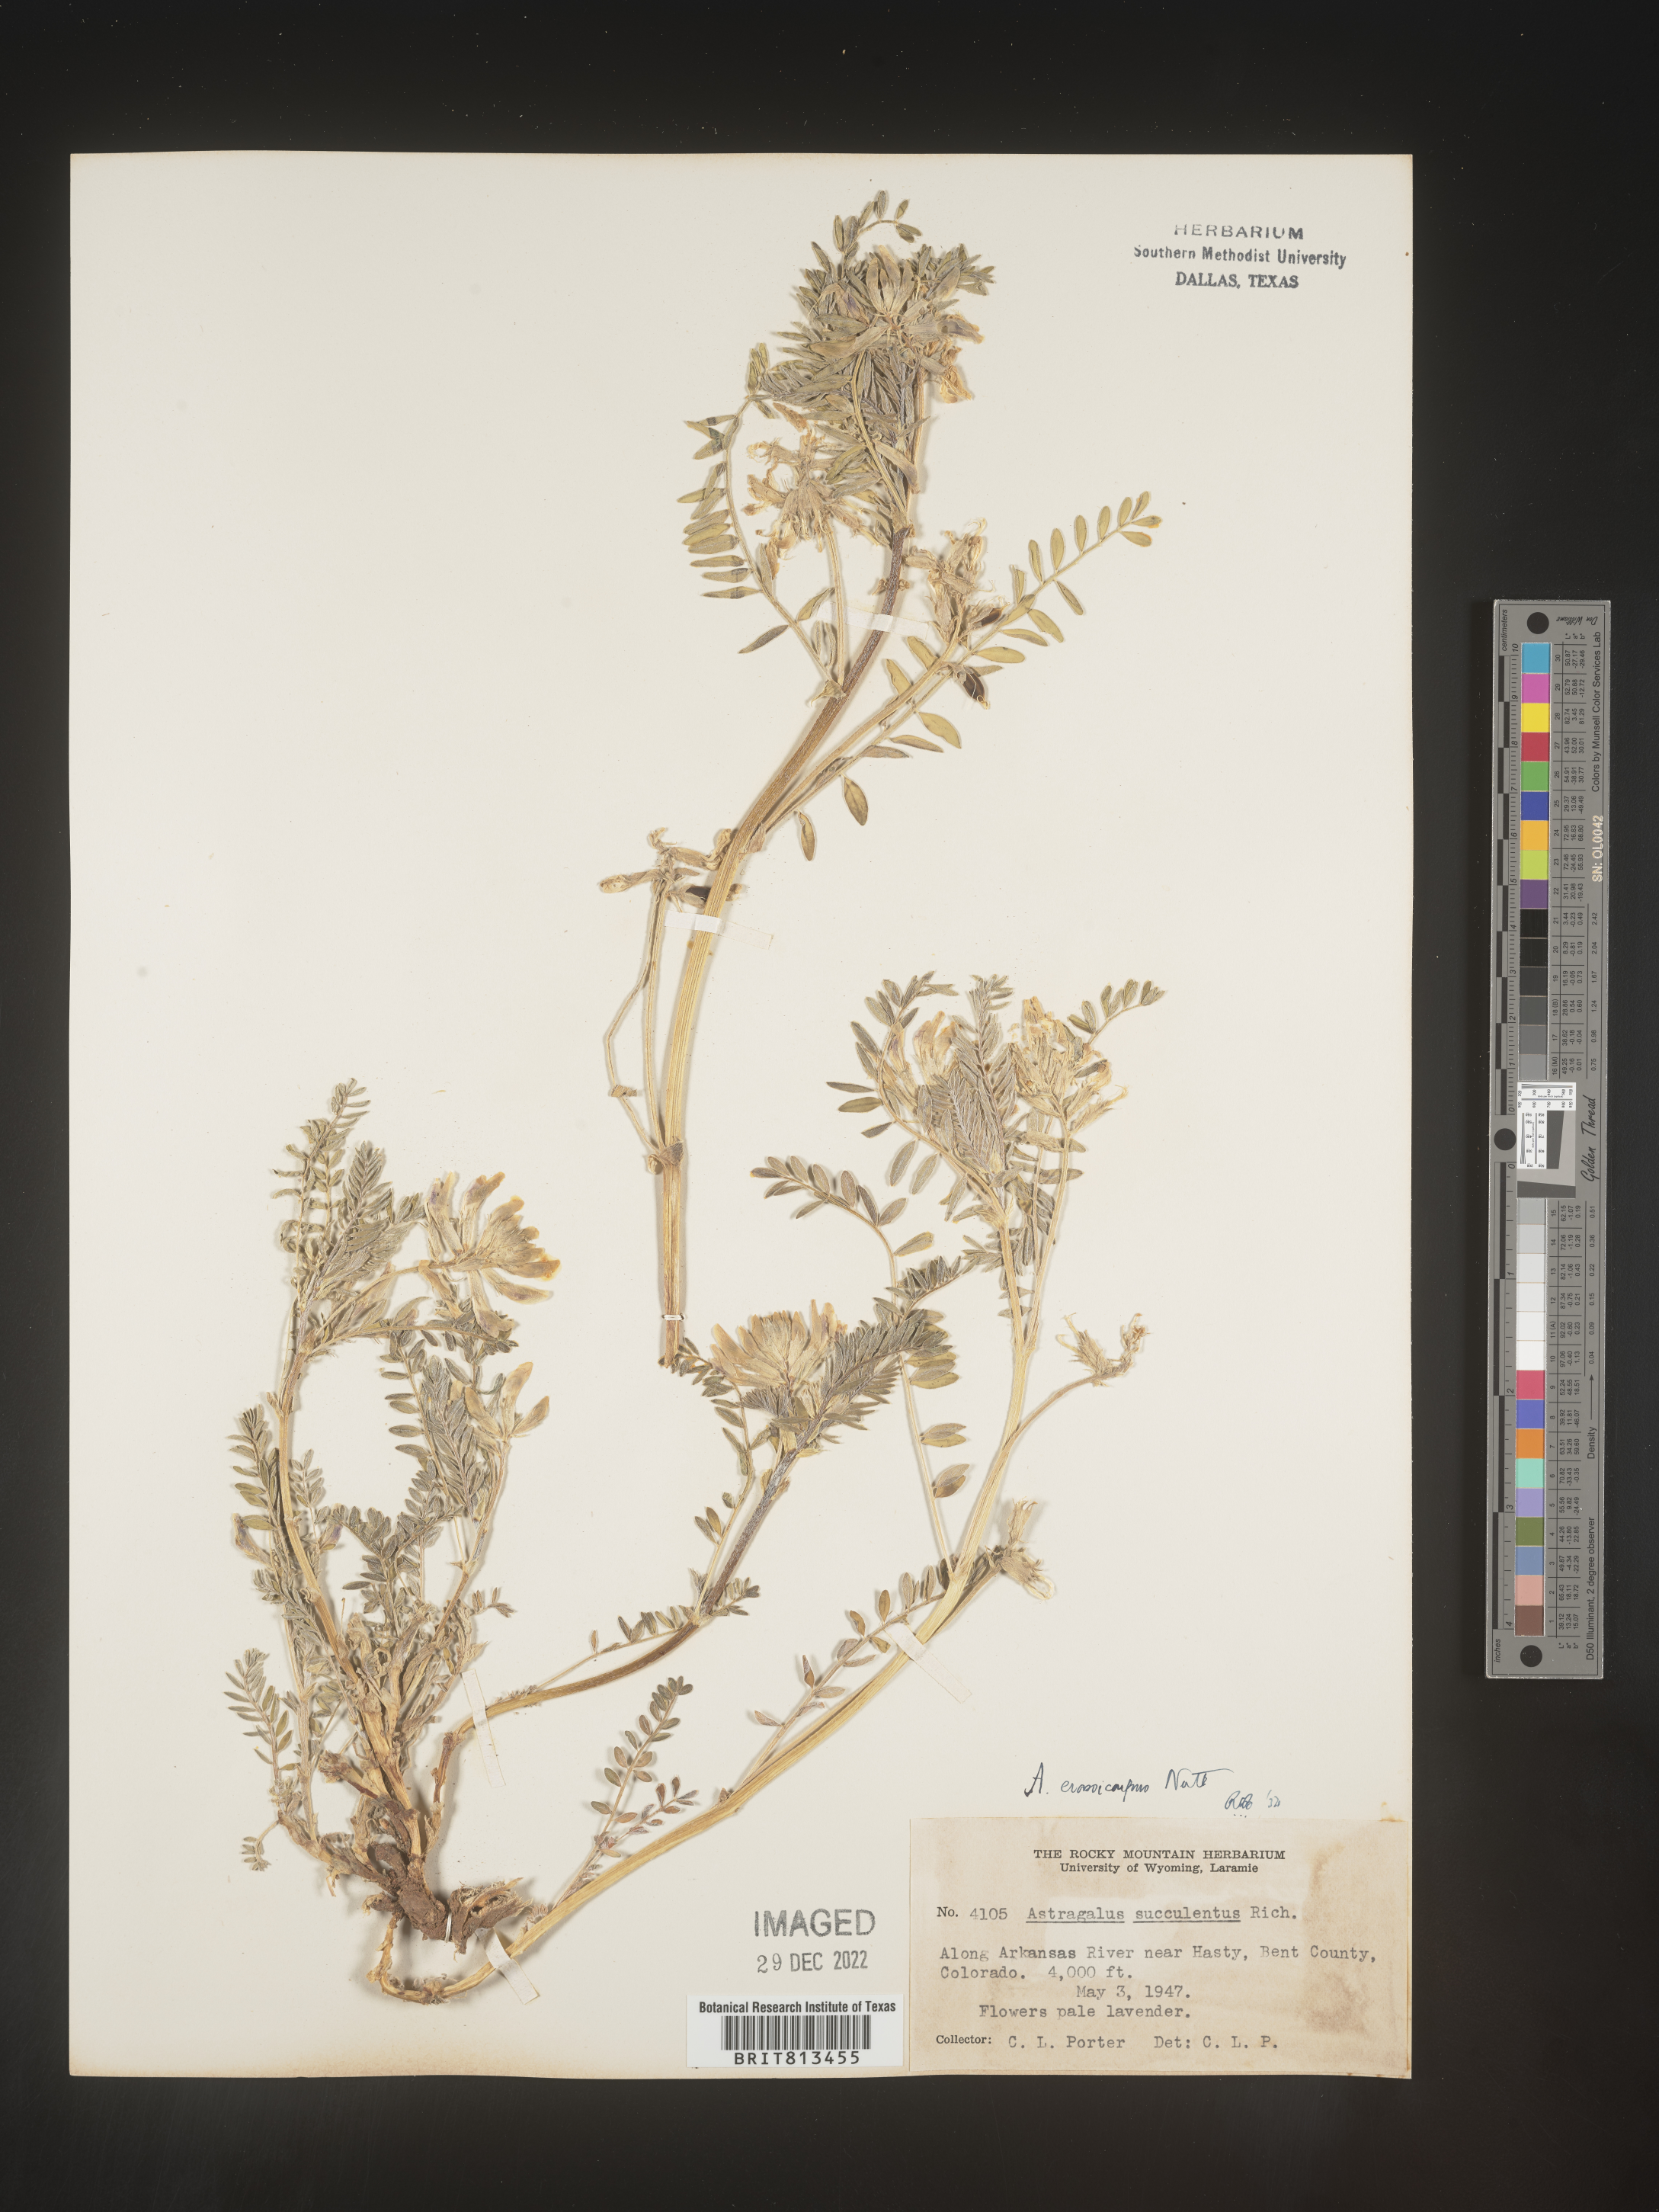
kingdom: Plantae
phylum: Tracheophyta
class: Magnoliopsida
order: Fabales
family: Fabaceae
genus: Astragalus
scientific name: Astragalus
